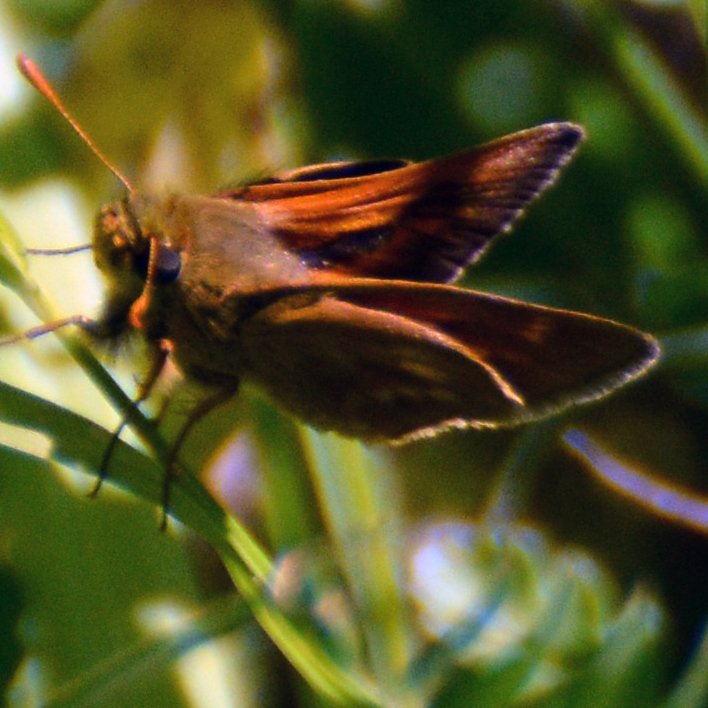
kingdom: Animalia
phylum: Arthropoda
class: Insecta
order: Lepidoptera
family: Hesperiidae
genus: Polites
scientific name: Polites
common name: Long Dash Skipper
